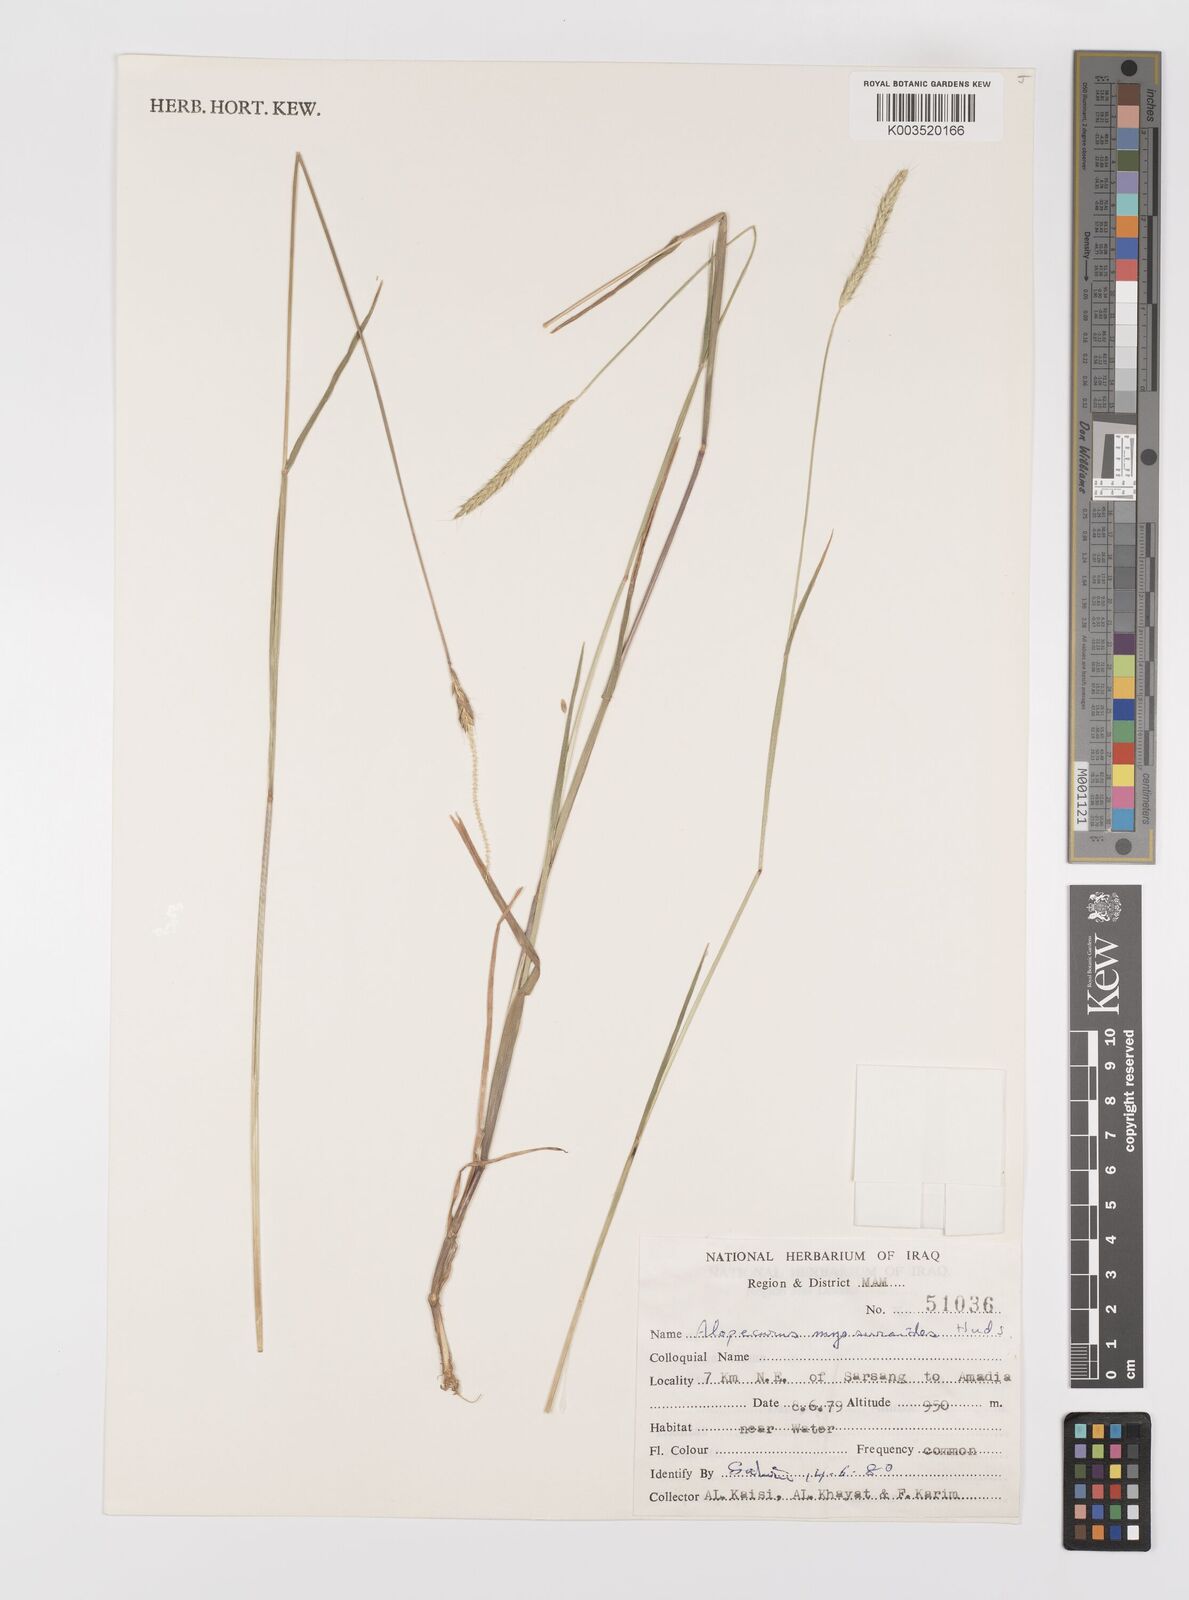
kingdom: Plantae
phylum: Tracheophyta
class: Liliopsida
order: Poales
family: Poaceae
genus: Alopecurus
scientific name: Alopecurus myosuroides
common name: Black-grass
